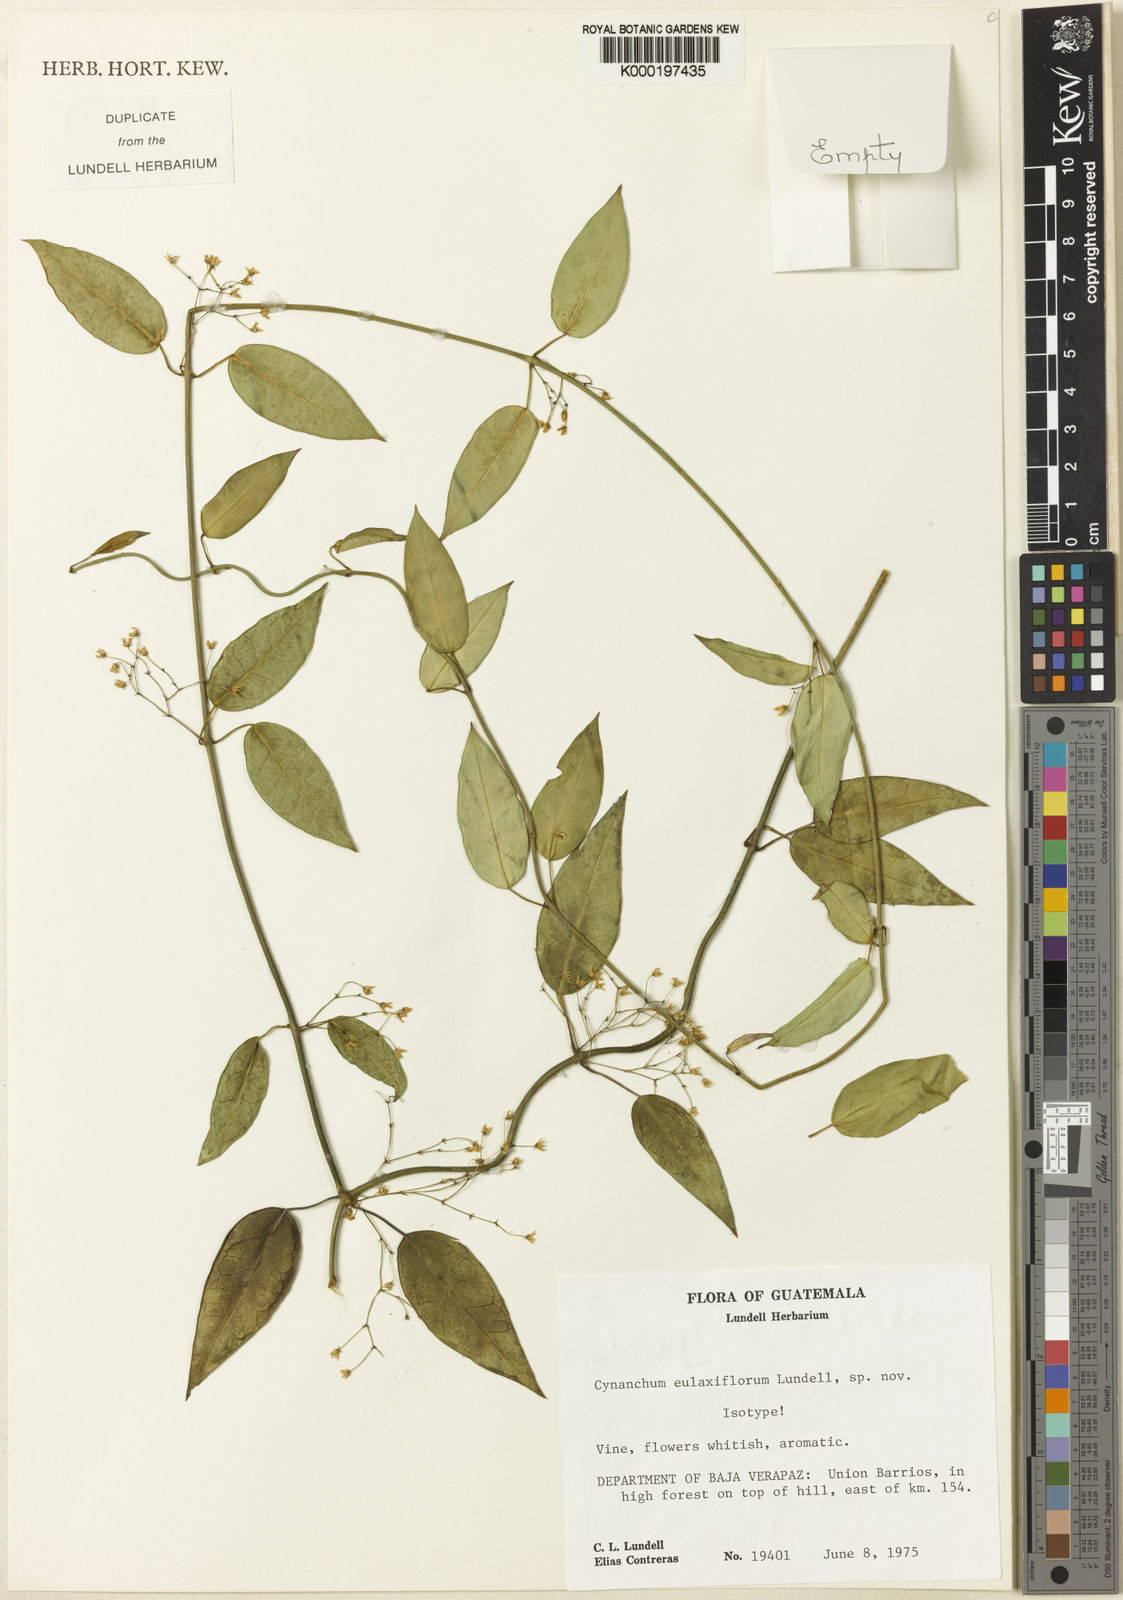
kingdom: Plantae
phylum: Tracheophyta
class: Magnoliopsida
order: Gentianales
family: Apocynaceae
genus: Jobinia
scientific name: Jobinia eulaxiflora
